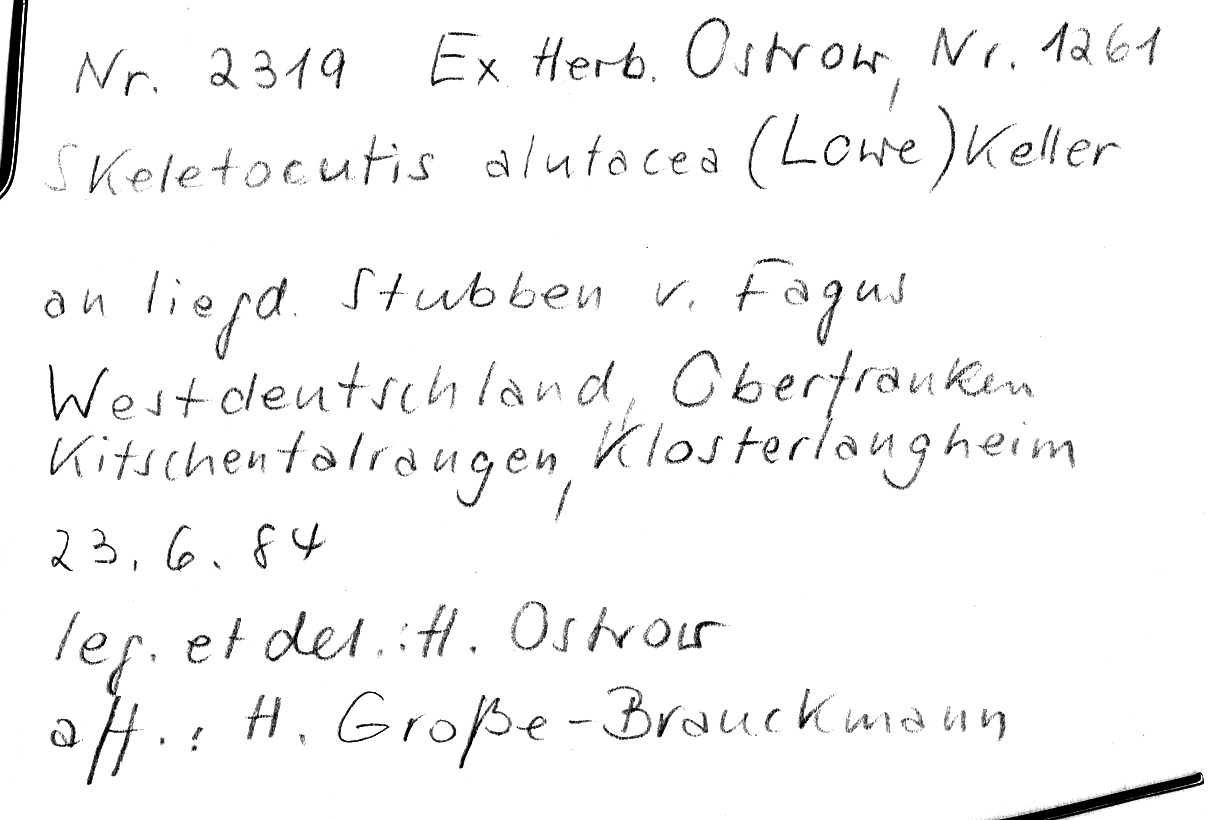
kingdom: Plantae
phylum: Tracheophyta
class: Magnoliopsida
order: Fagales
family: Fagaceae
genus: Fagus
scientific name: Fagus sylvatica
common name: Beech
